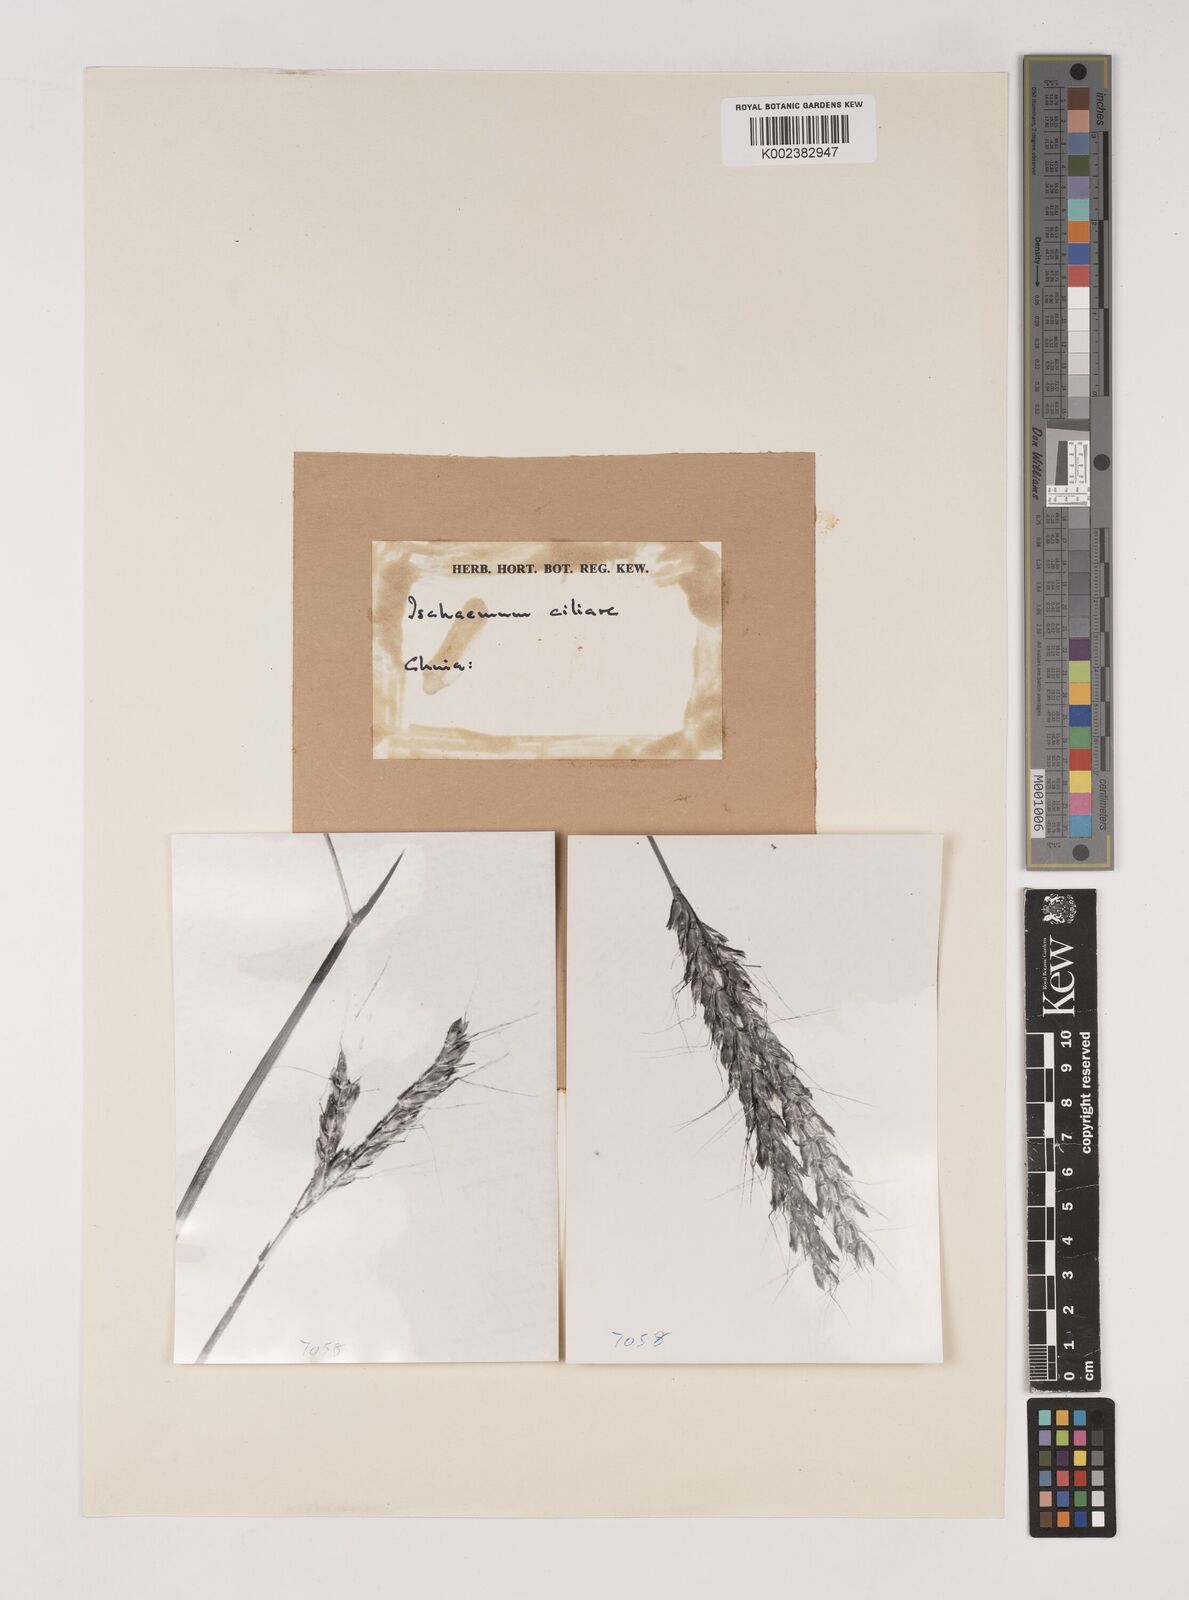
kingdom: Plantae
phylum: Tracheophyta
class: Liliopsida
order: Poales
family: Poaceae
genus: Polytrias
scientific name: Polytrias indica
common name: Indian murainagrass
